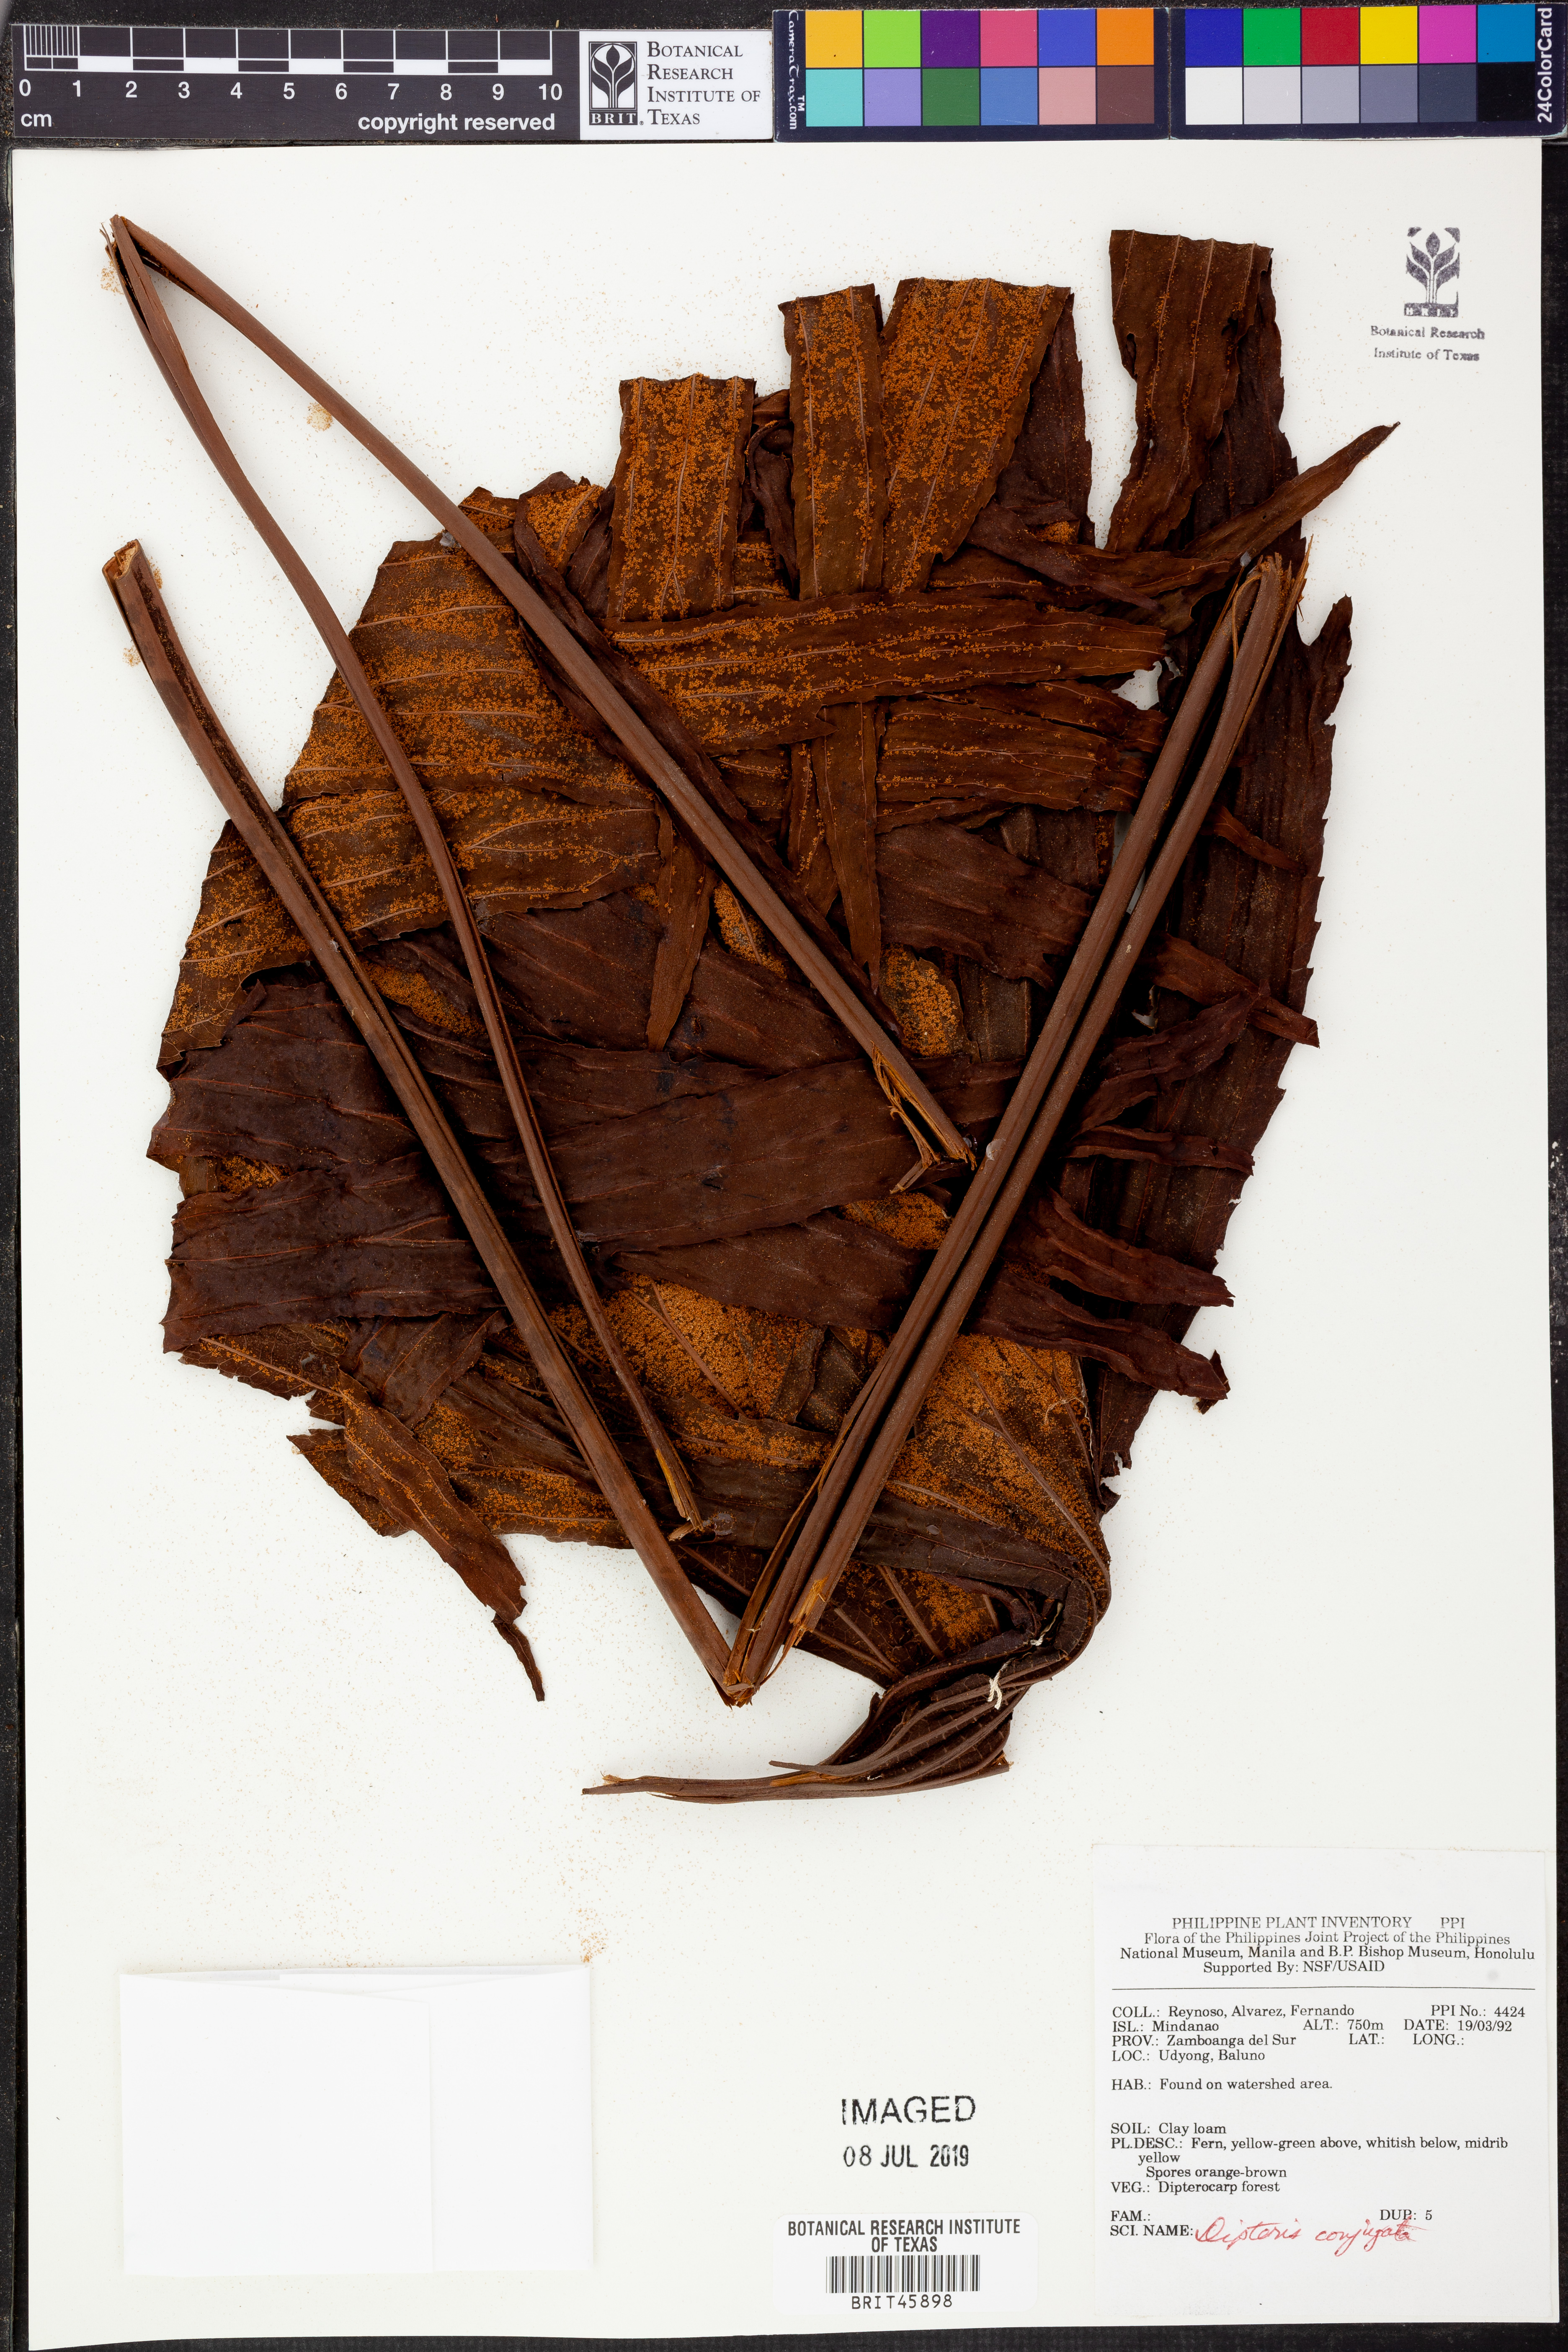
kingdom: Plantae
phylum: Tracheophyta
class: Polypodiopsida
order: Gleicheniales
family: Dipteridaceae
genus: Dipteris
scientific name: Dipteris conjugata
